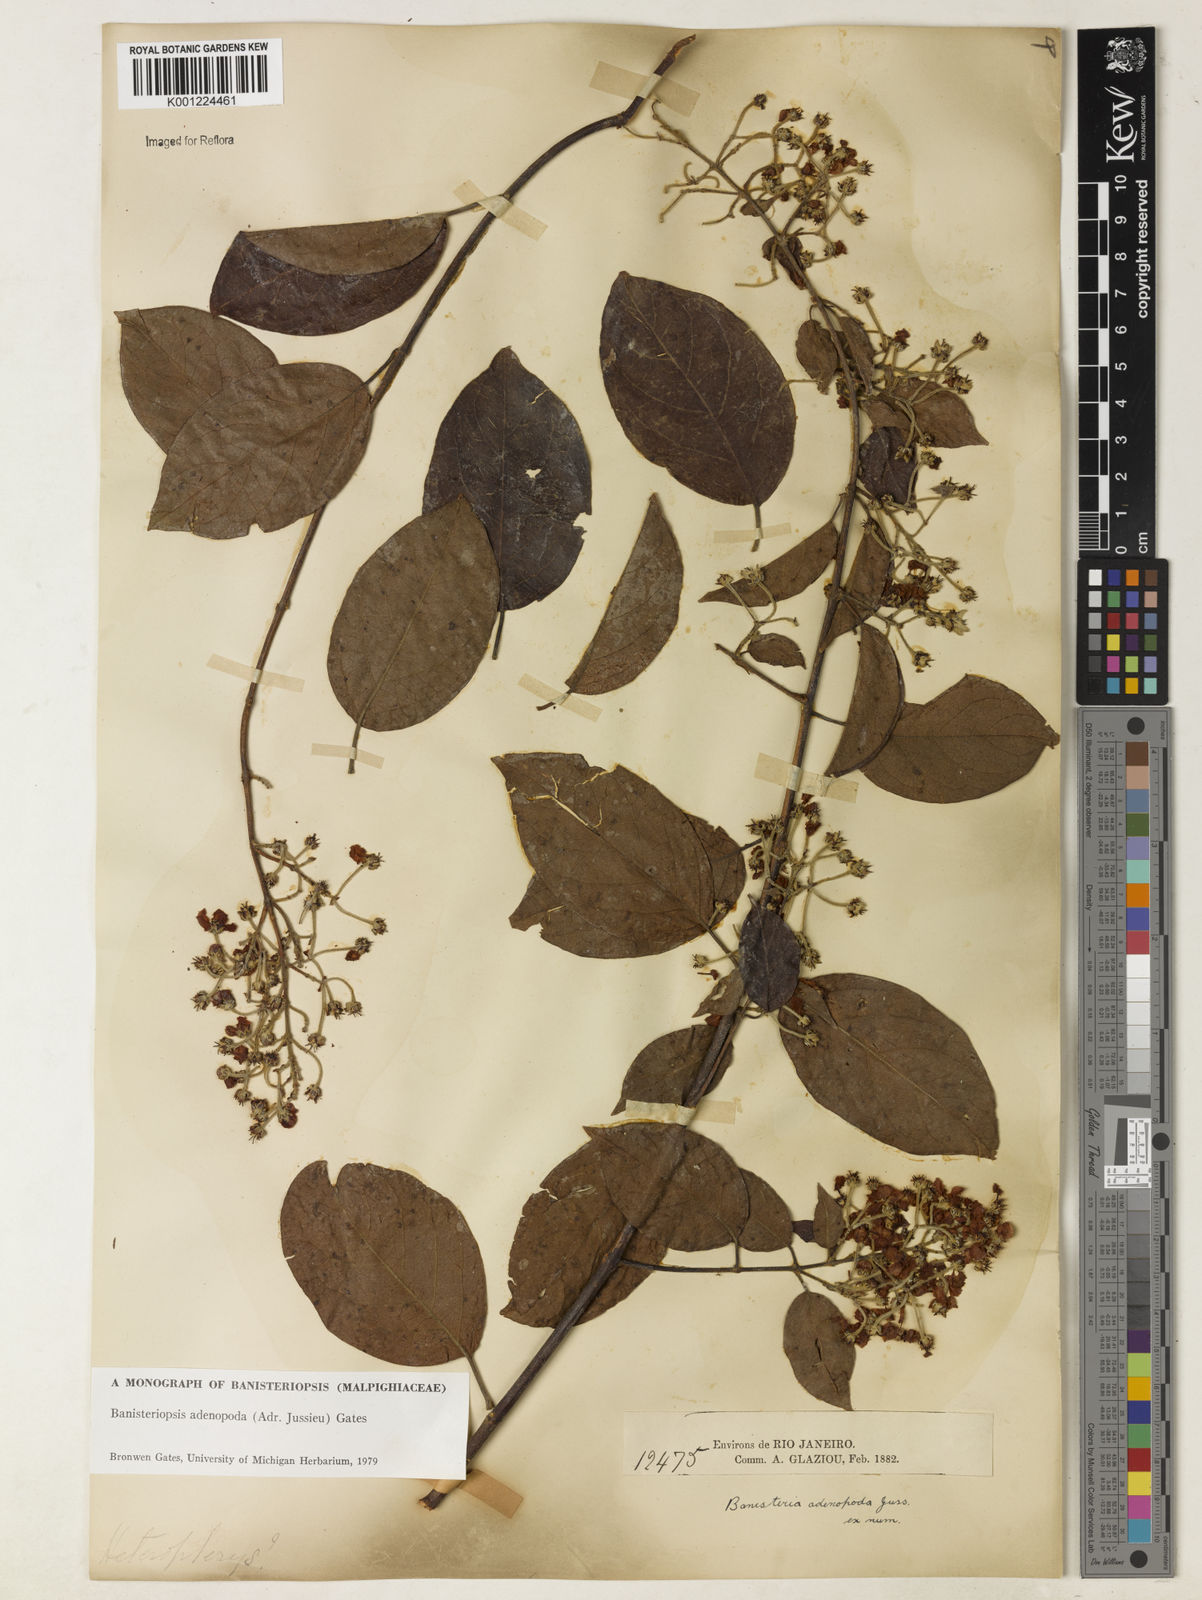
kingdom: Plantae
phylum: Tracheophyta
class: Magnoliopsida
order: Malpighiales
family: Malpighiaceae
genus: Banisteriopsis
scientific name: Banisteriopsis adenopoda
